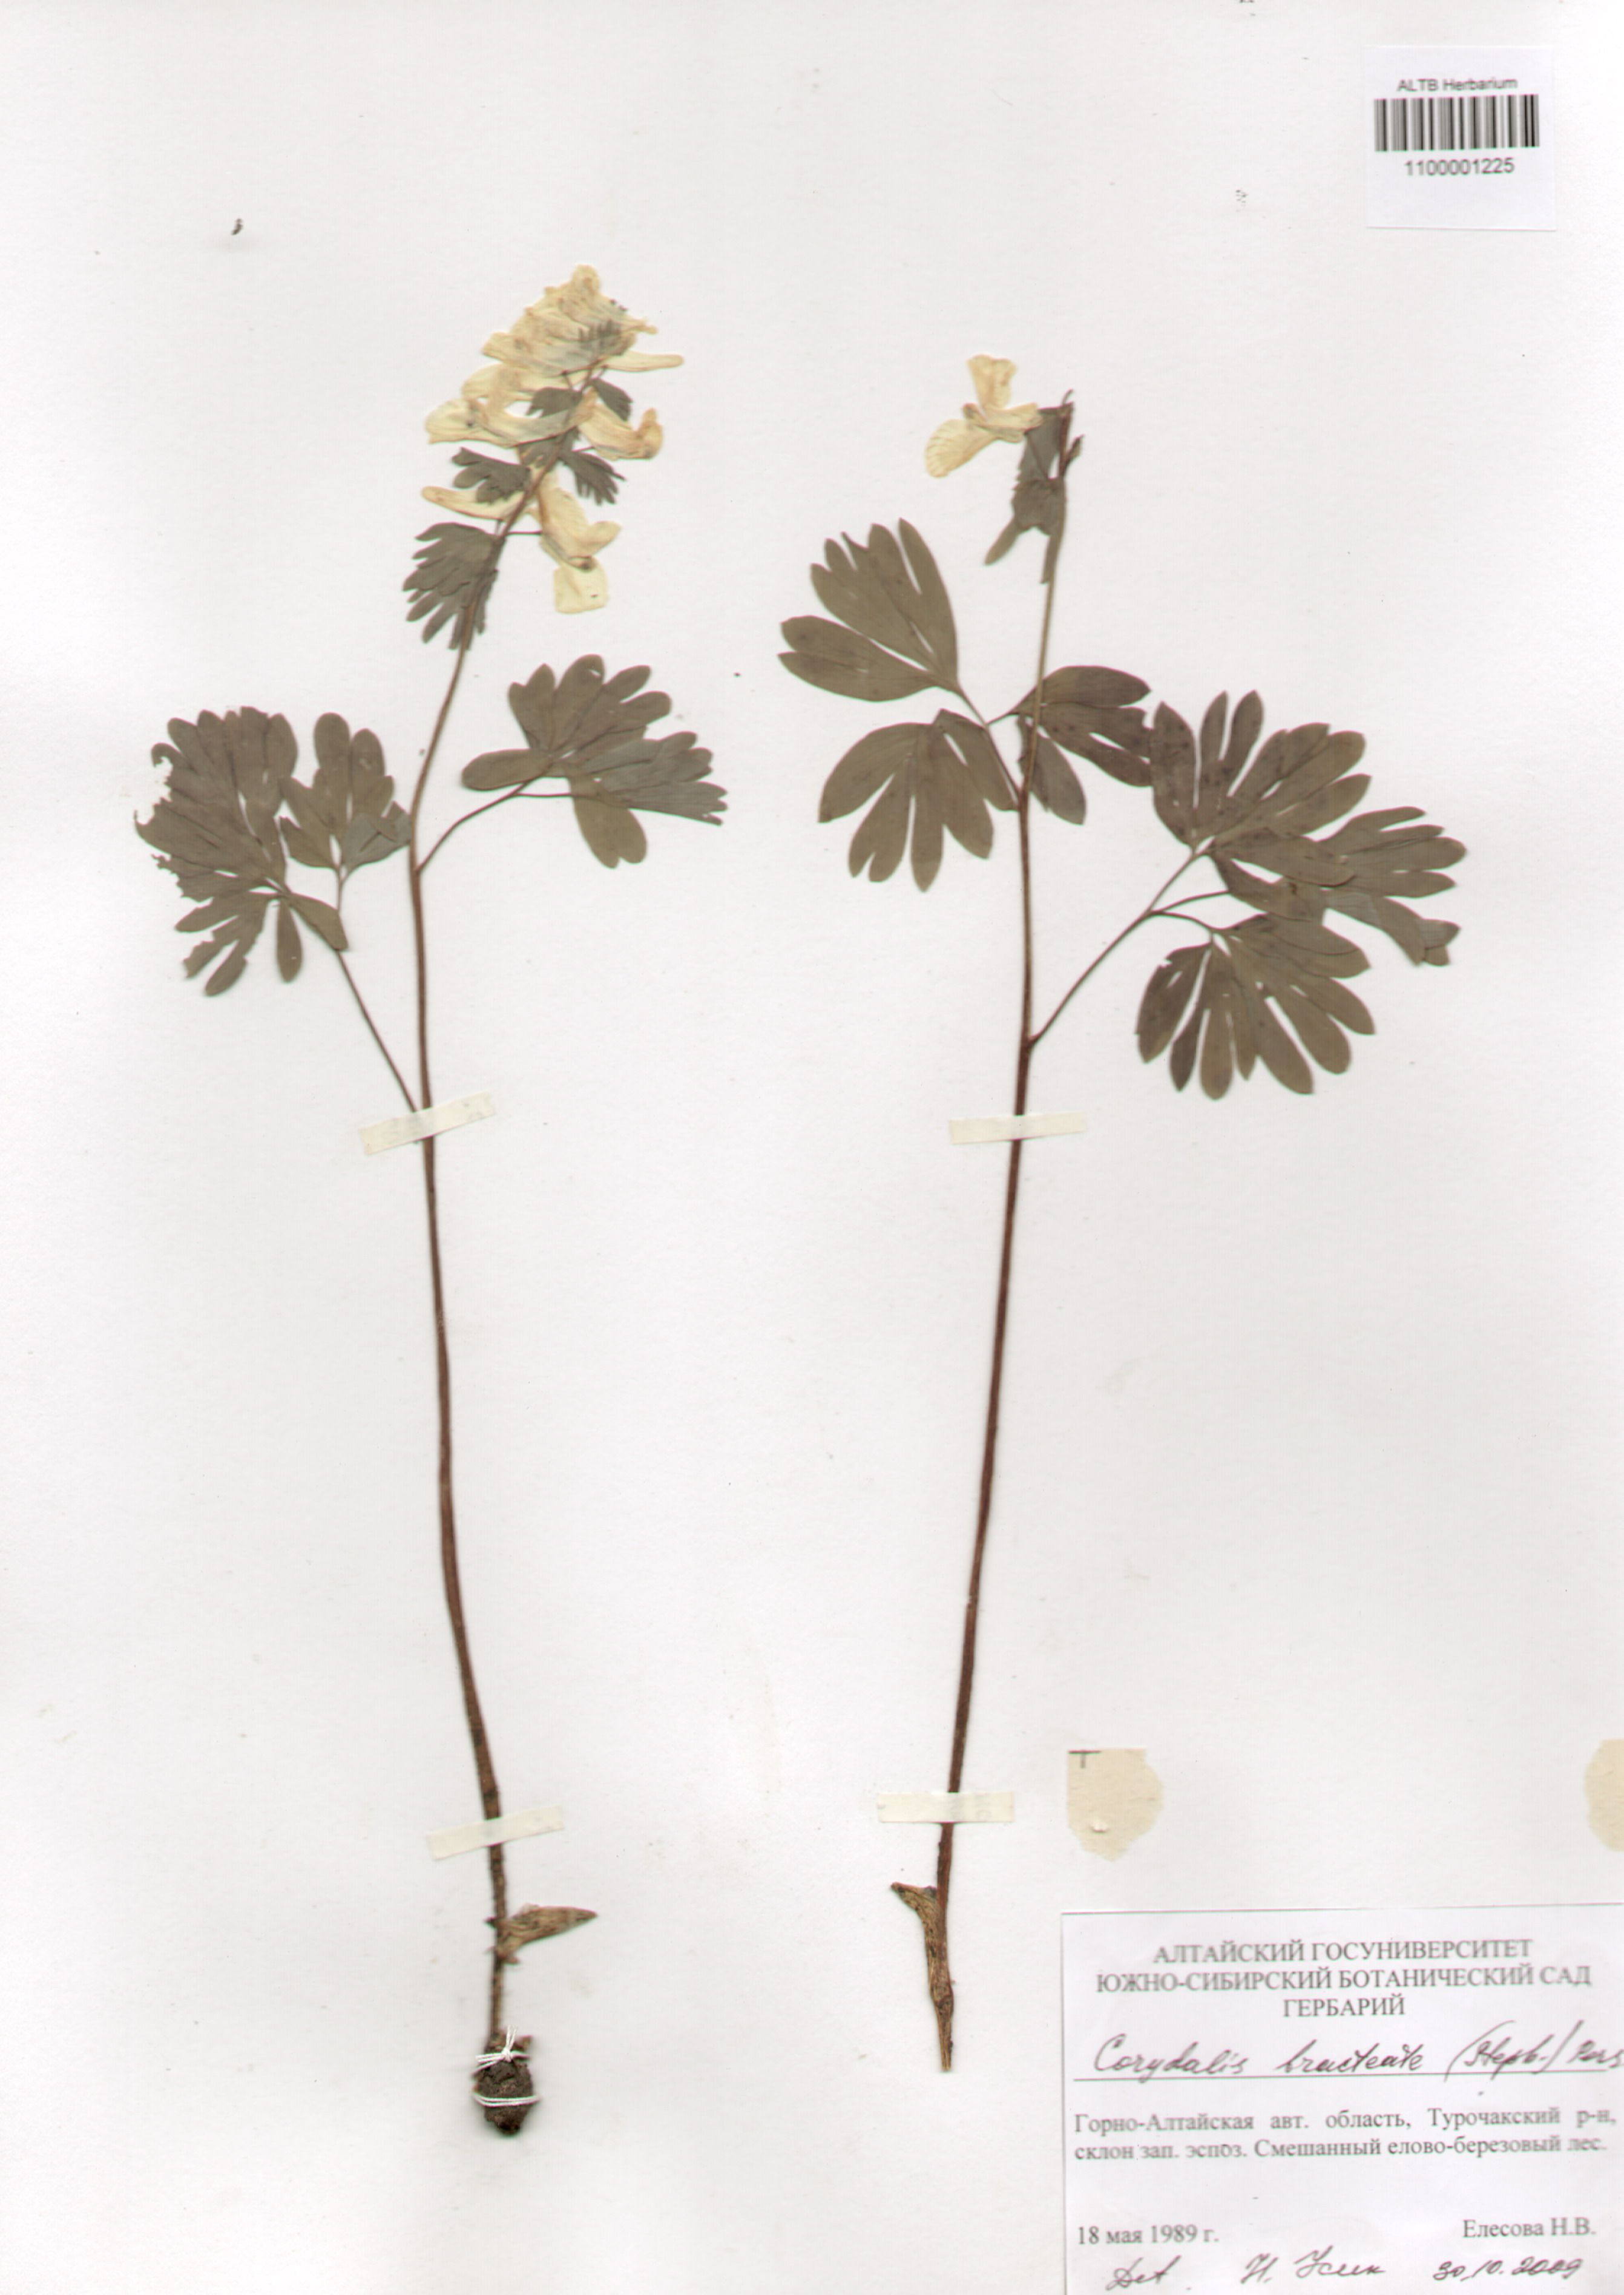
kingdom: Plantae
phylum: Tracheophyta
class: Magnoliopsida
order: Ranunculales
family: Papaveraceae
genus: Corydalis
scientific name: Corydalis bracteata
